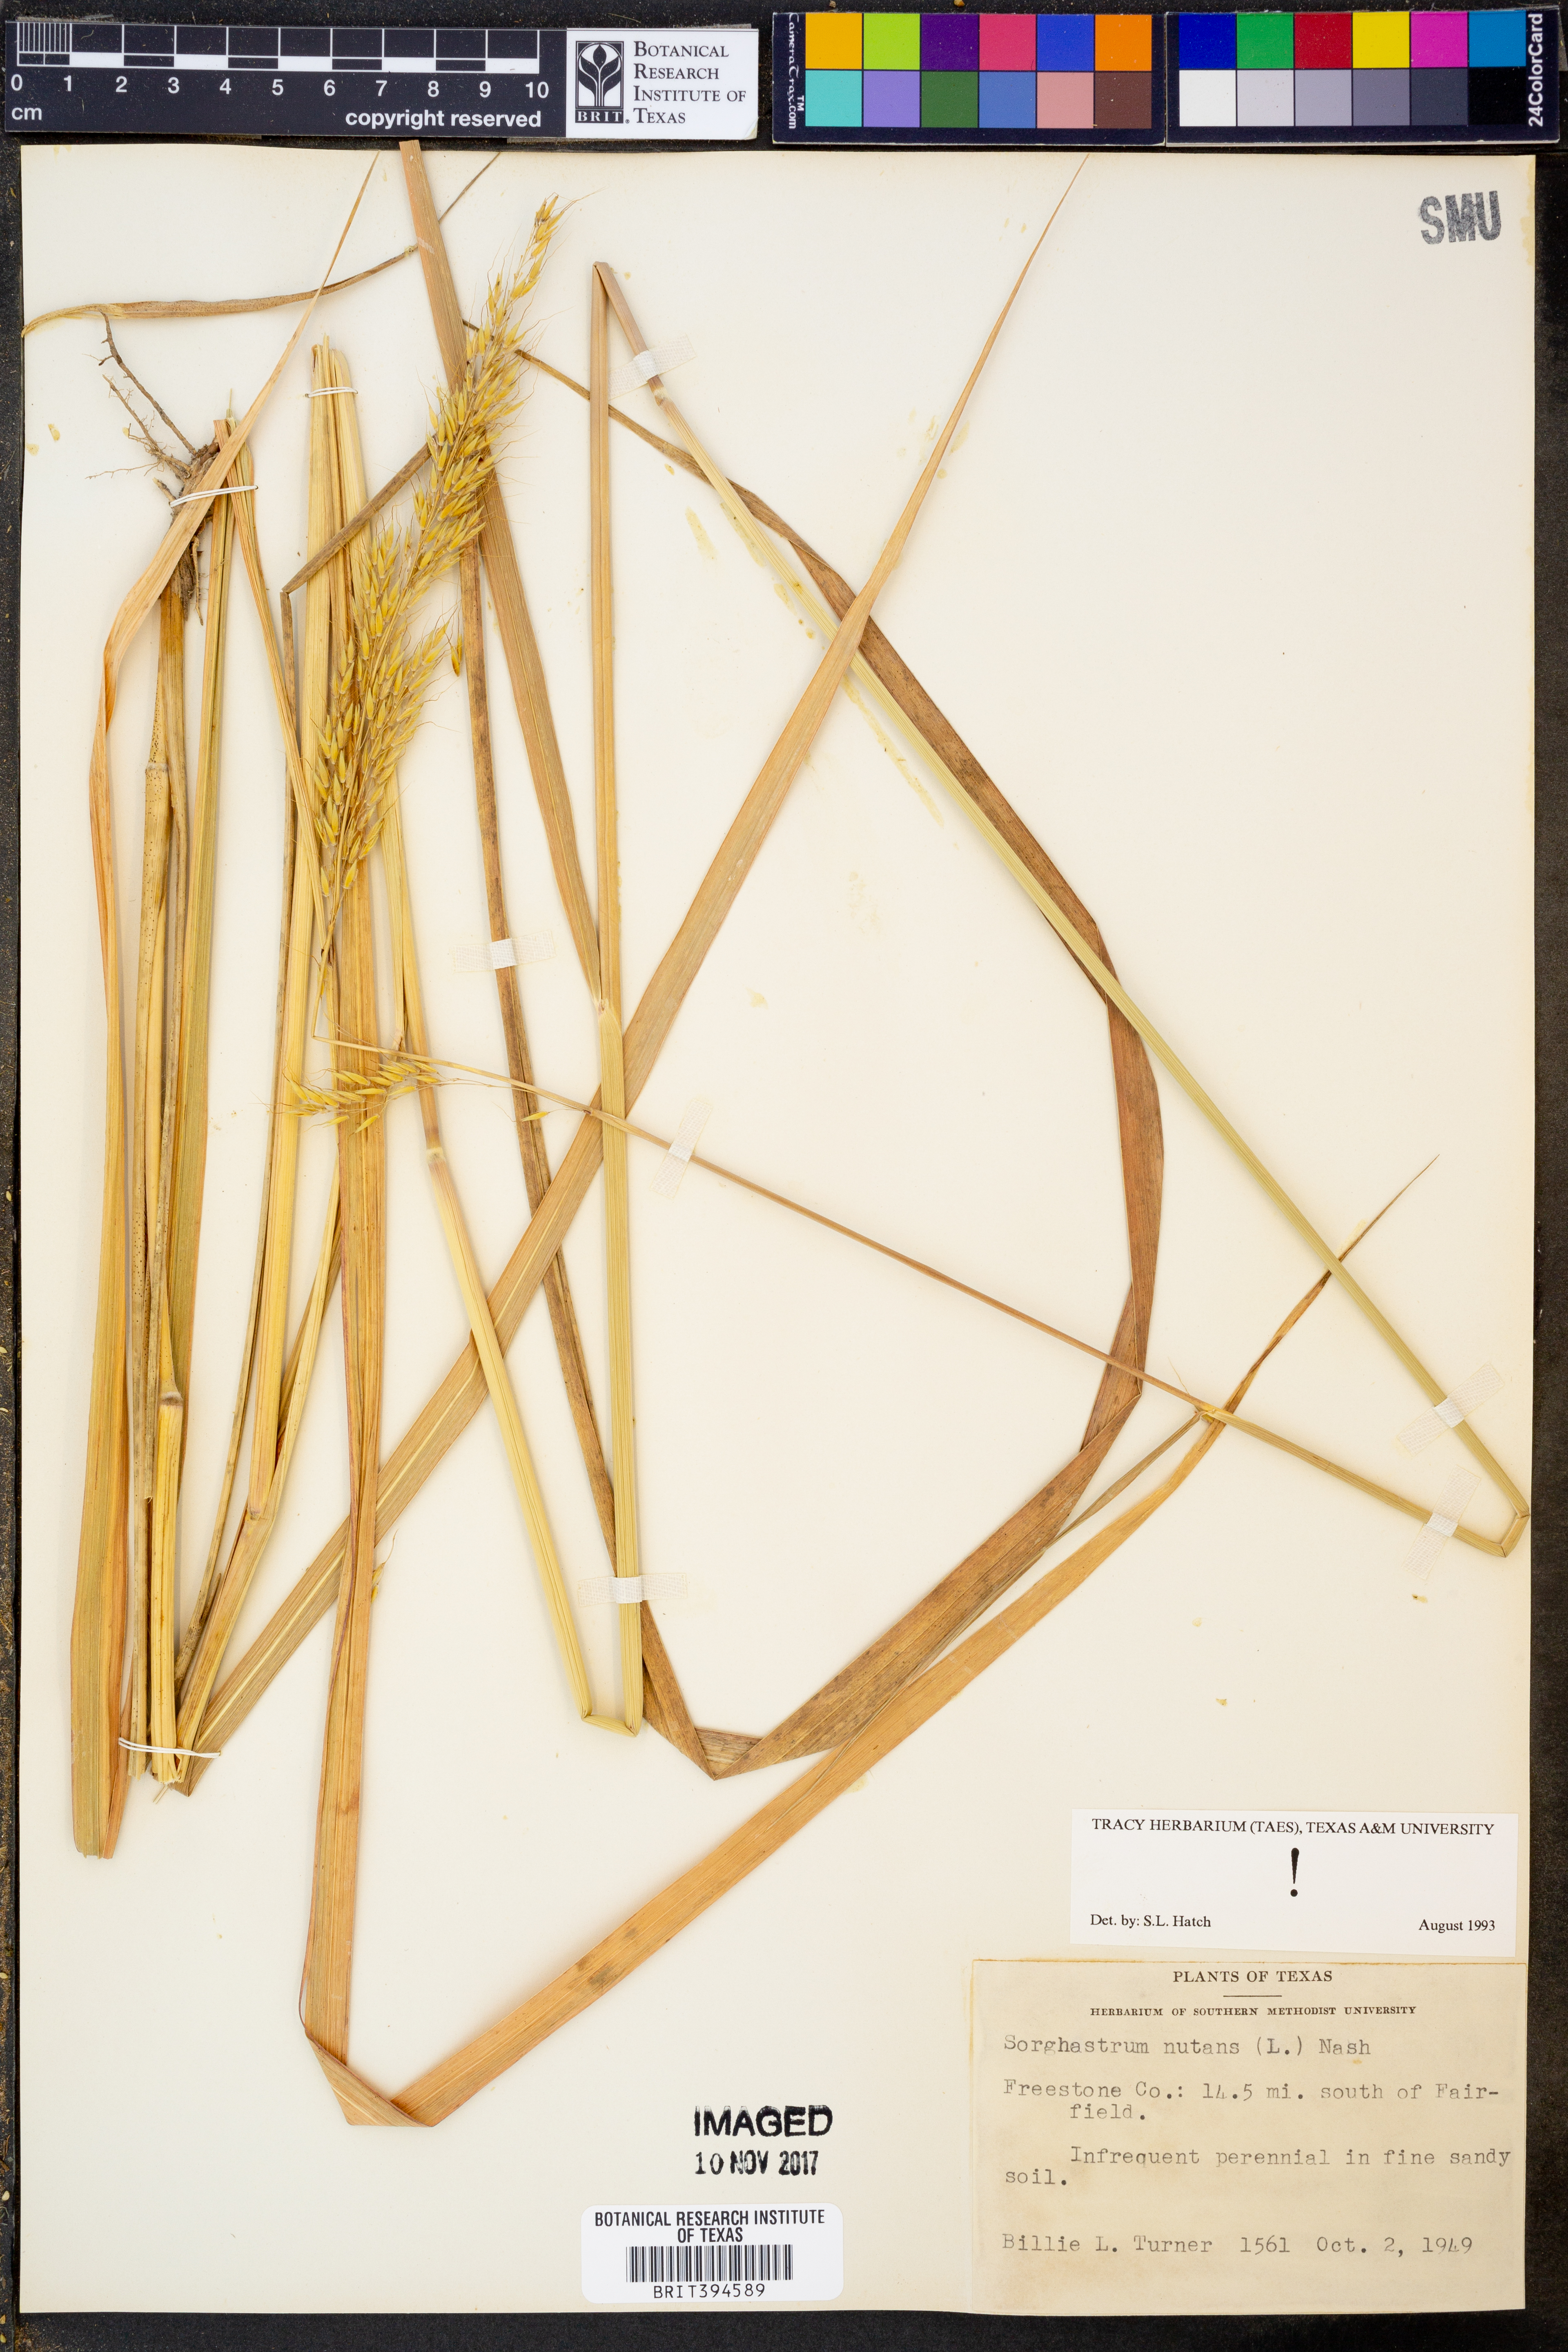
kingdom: Plantae
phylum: Tracheophyta
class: Liliopsida
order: Poales
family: Poaceae
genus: Sorghastrum
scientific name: Sorghastrum nutans
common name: Indian grass
